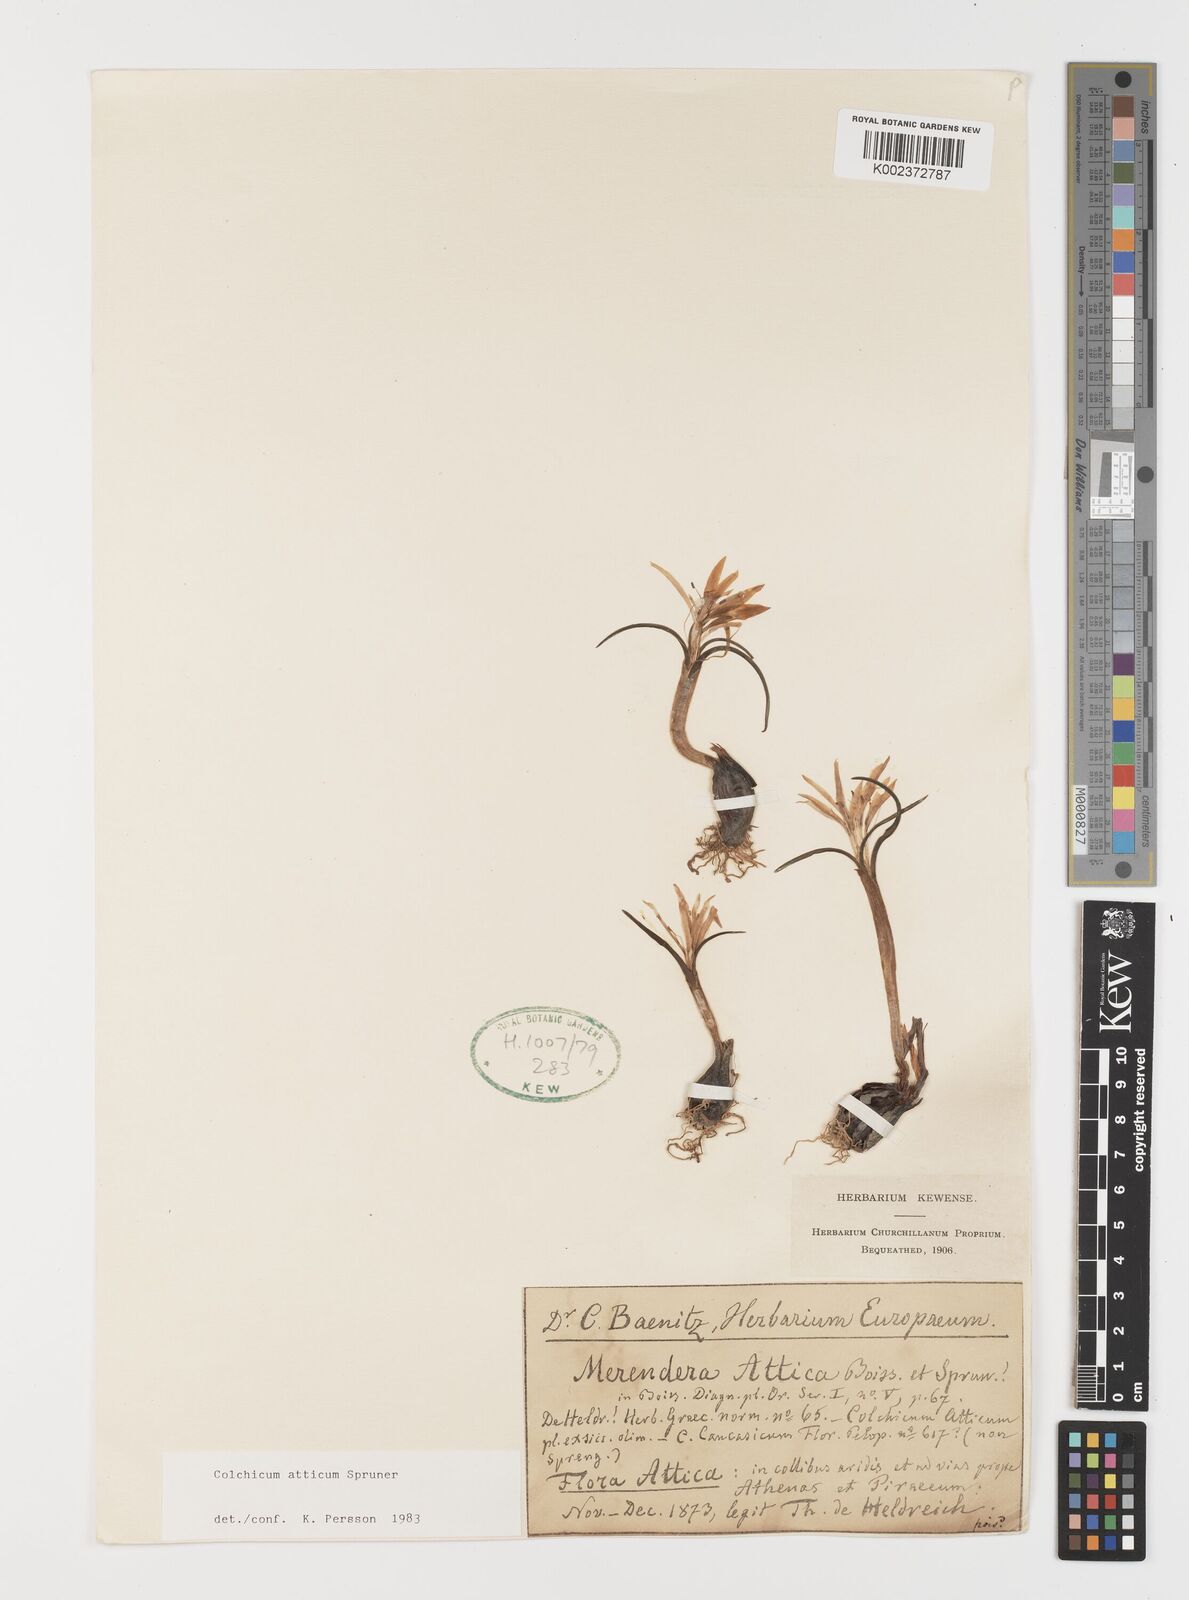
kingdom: Plantae
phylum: Tracheophyta
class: Liliopsida
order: Liliales
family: Colchicaceae
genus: Colchicum
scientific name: Colchicum atticum
